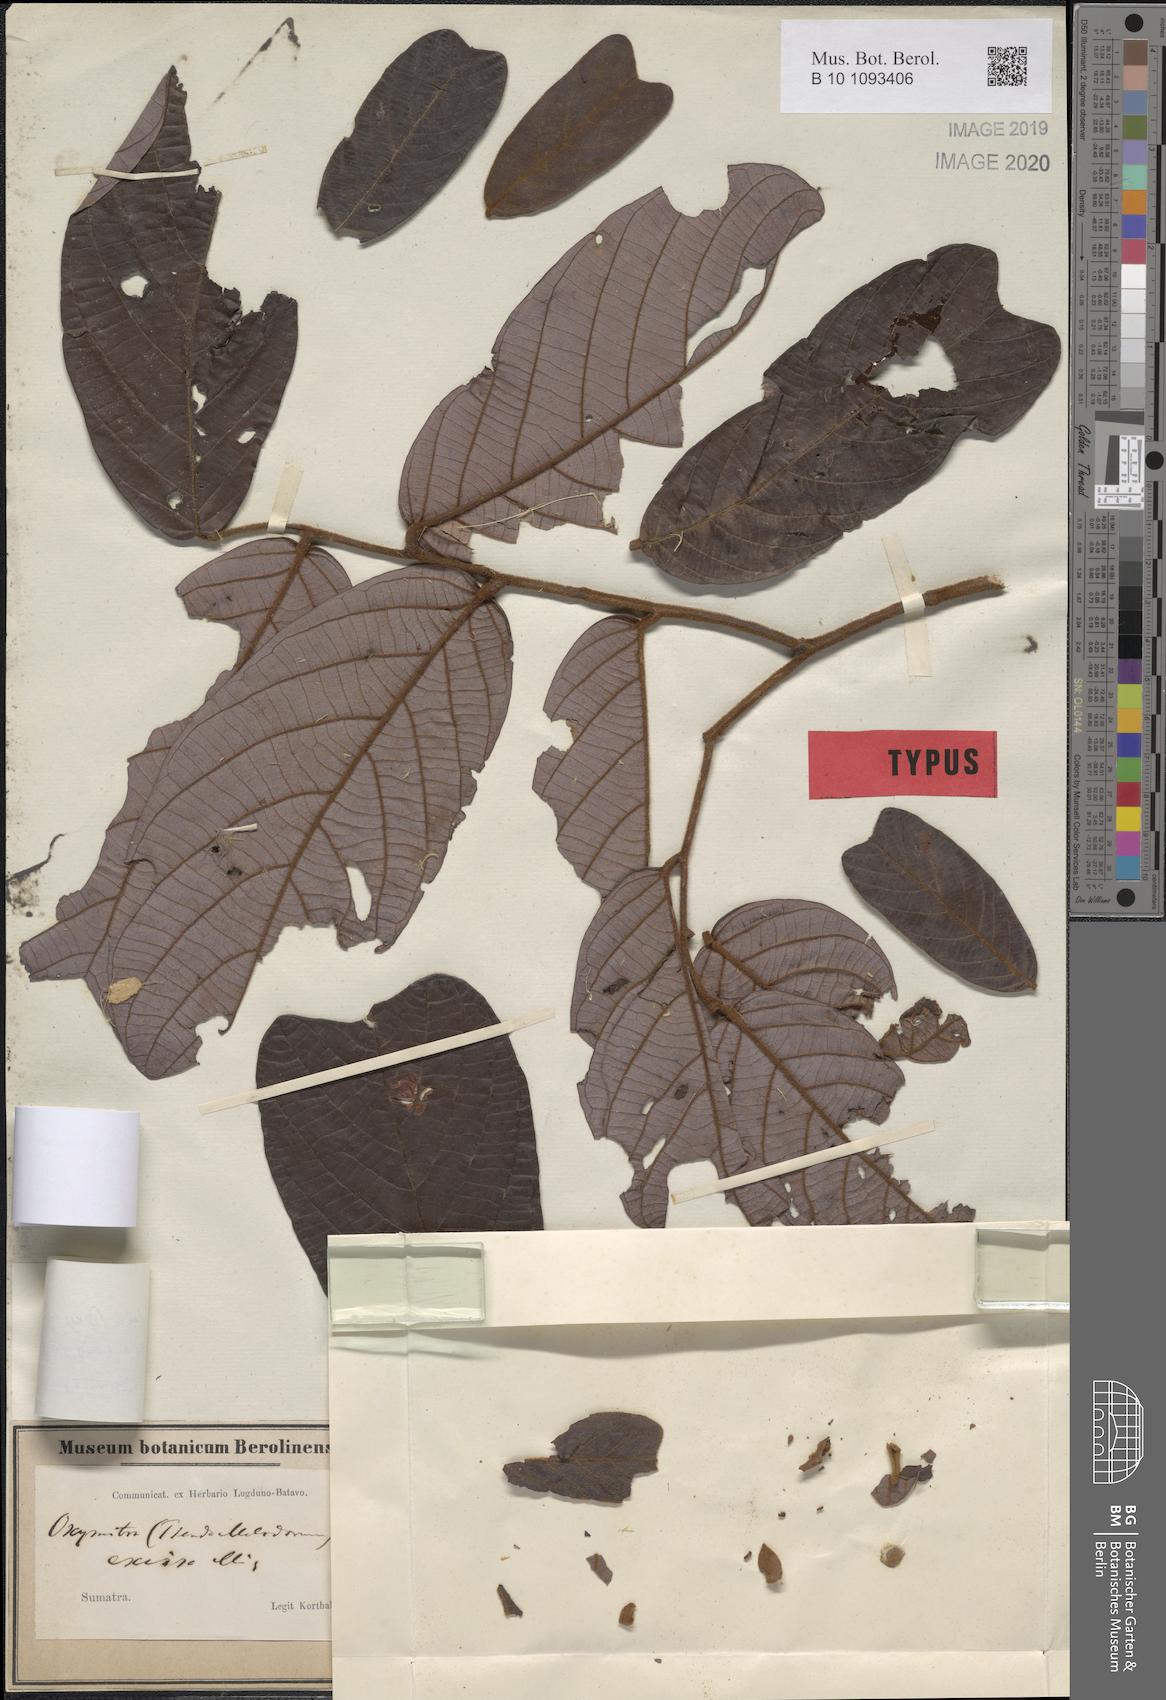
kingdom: Plantae
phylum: Tracheophyta
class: Magnoliopsida
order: Magnoliales
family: Annonaceae
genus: Friesodielsia
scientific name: Friesodielsia excisa
